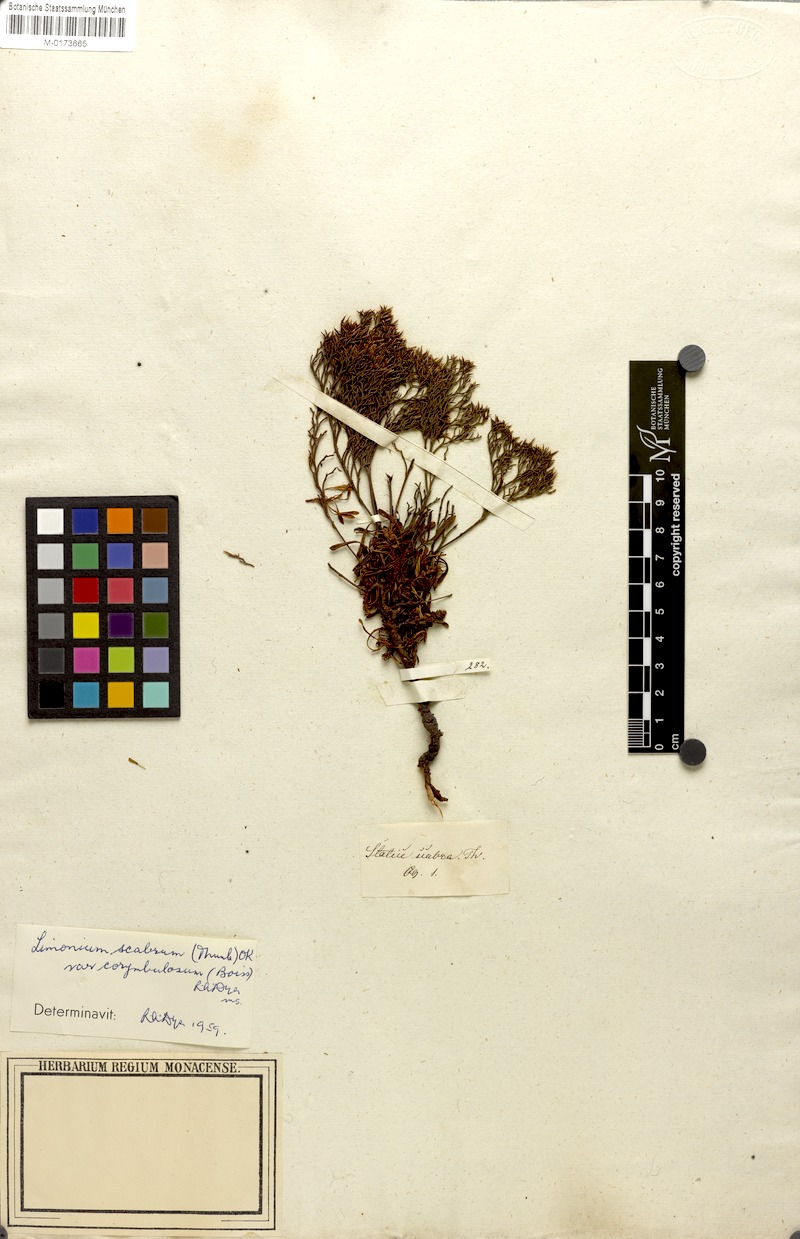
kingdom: Plantae
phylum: Tracheophyta
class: Magnoliopsida
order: Caryophyllales
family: Plumbaginaceae
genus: Limonium
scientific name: Limonium scabrum
